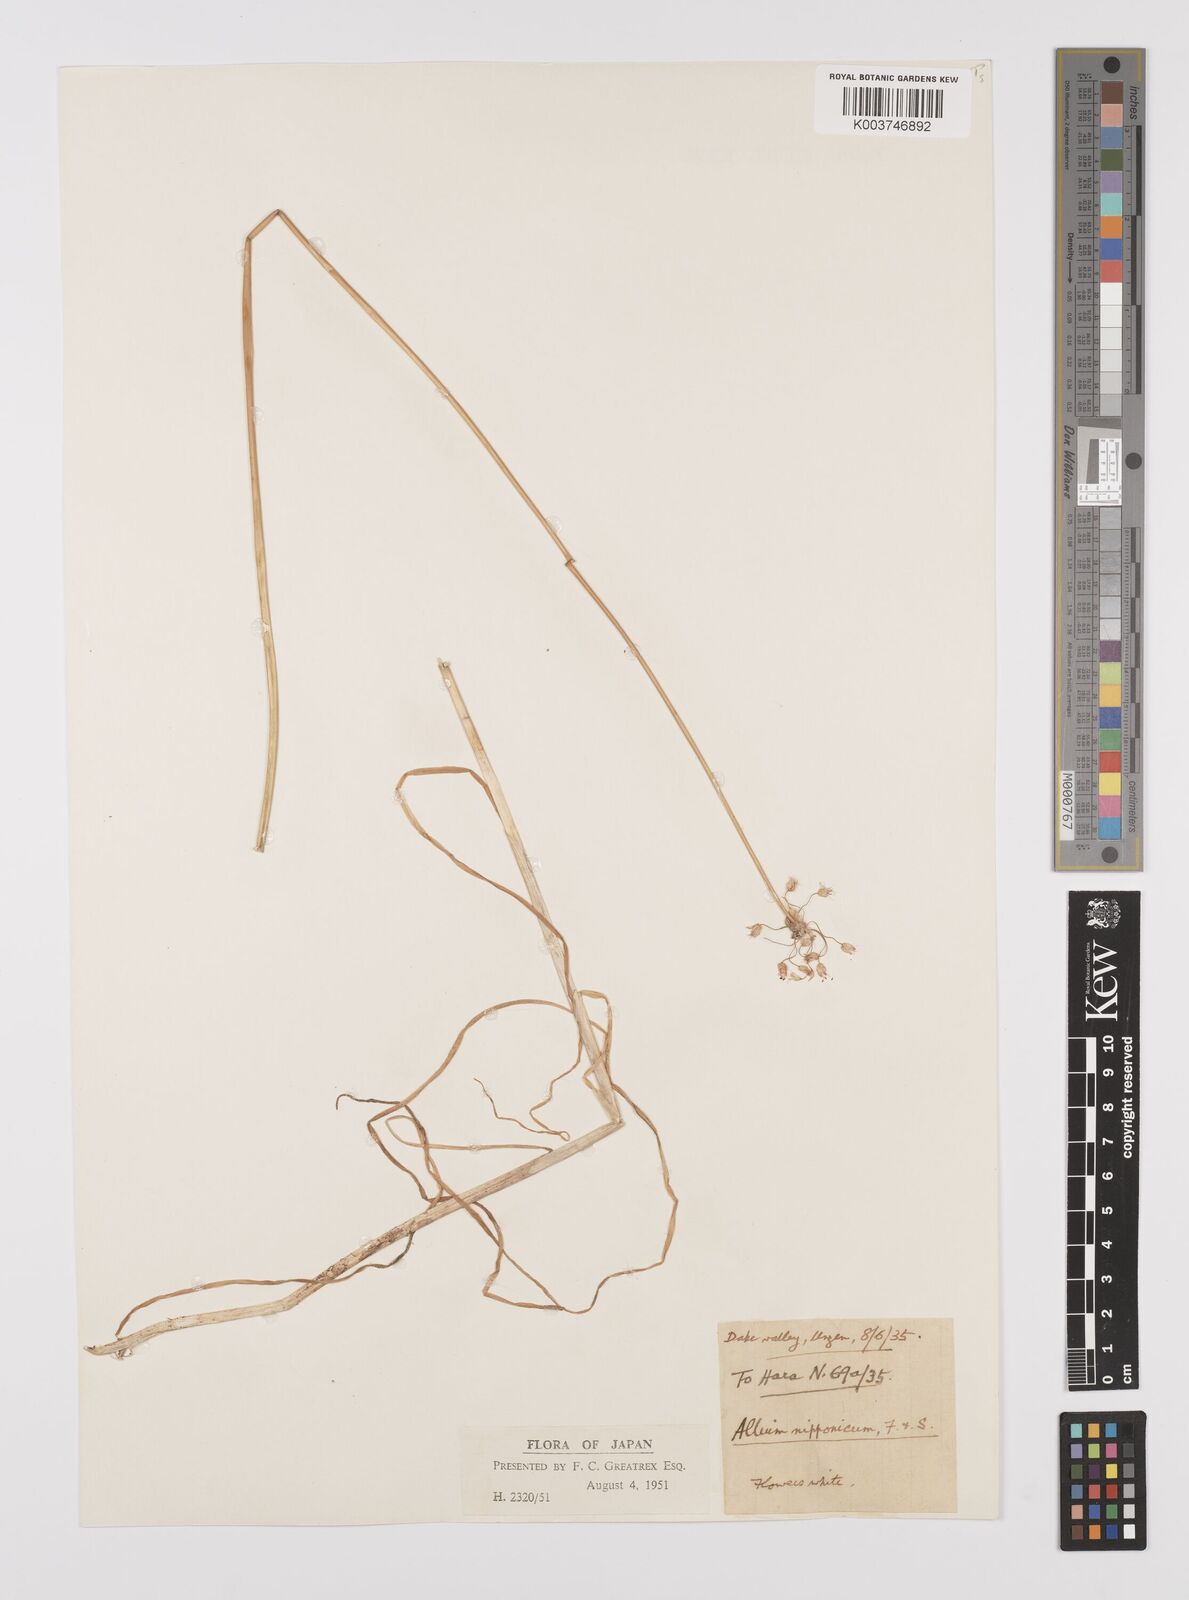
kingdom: Plantae
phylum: Tracheophyta
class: Liliopsida
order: Asparagales
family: Amaryllidaceae
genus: Allium
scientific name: Allium macrostemon
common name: Chinese garlic
